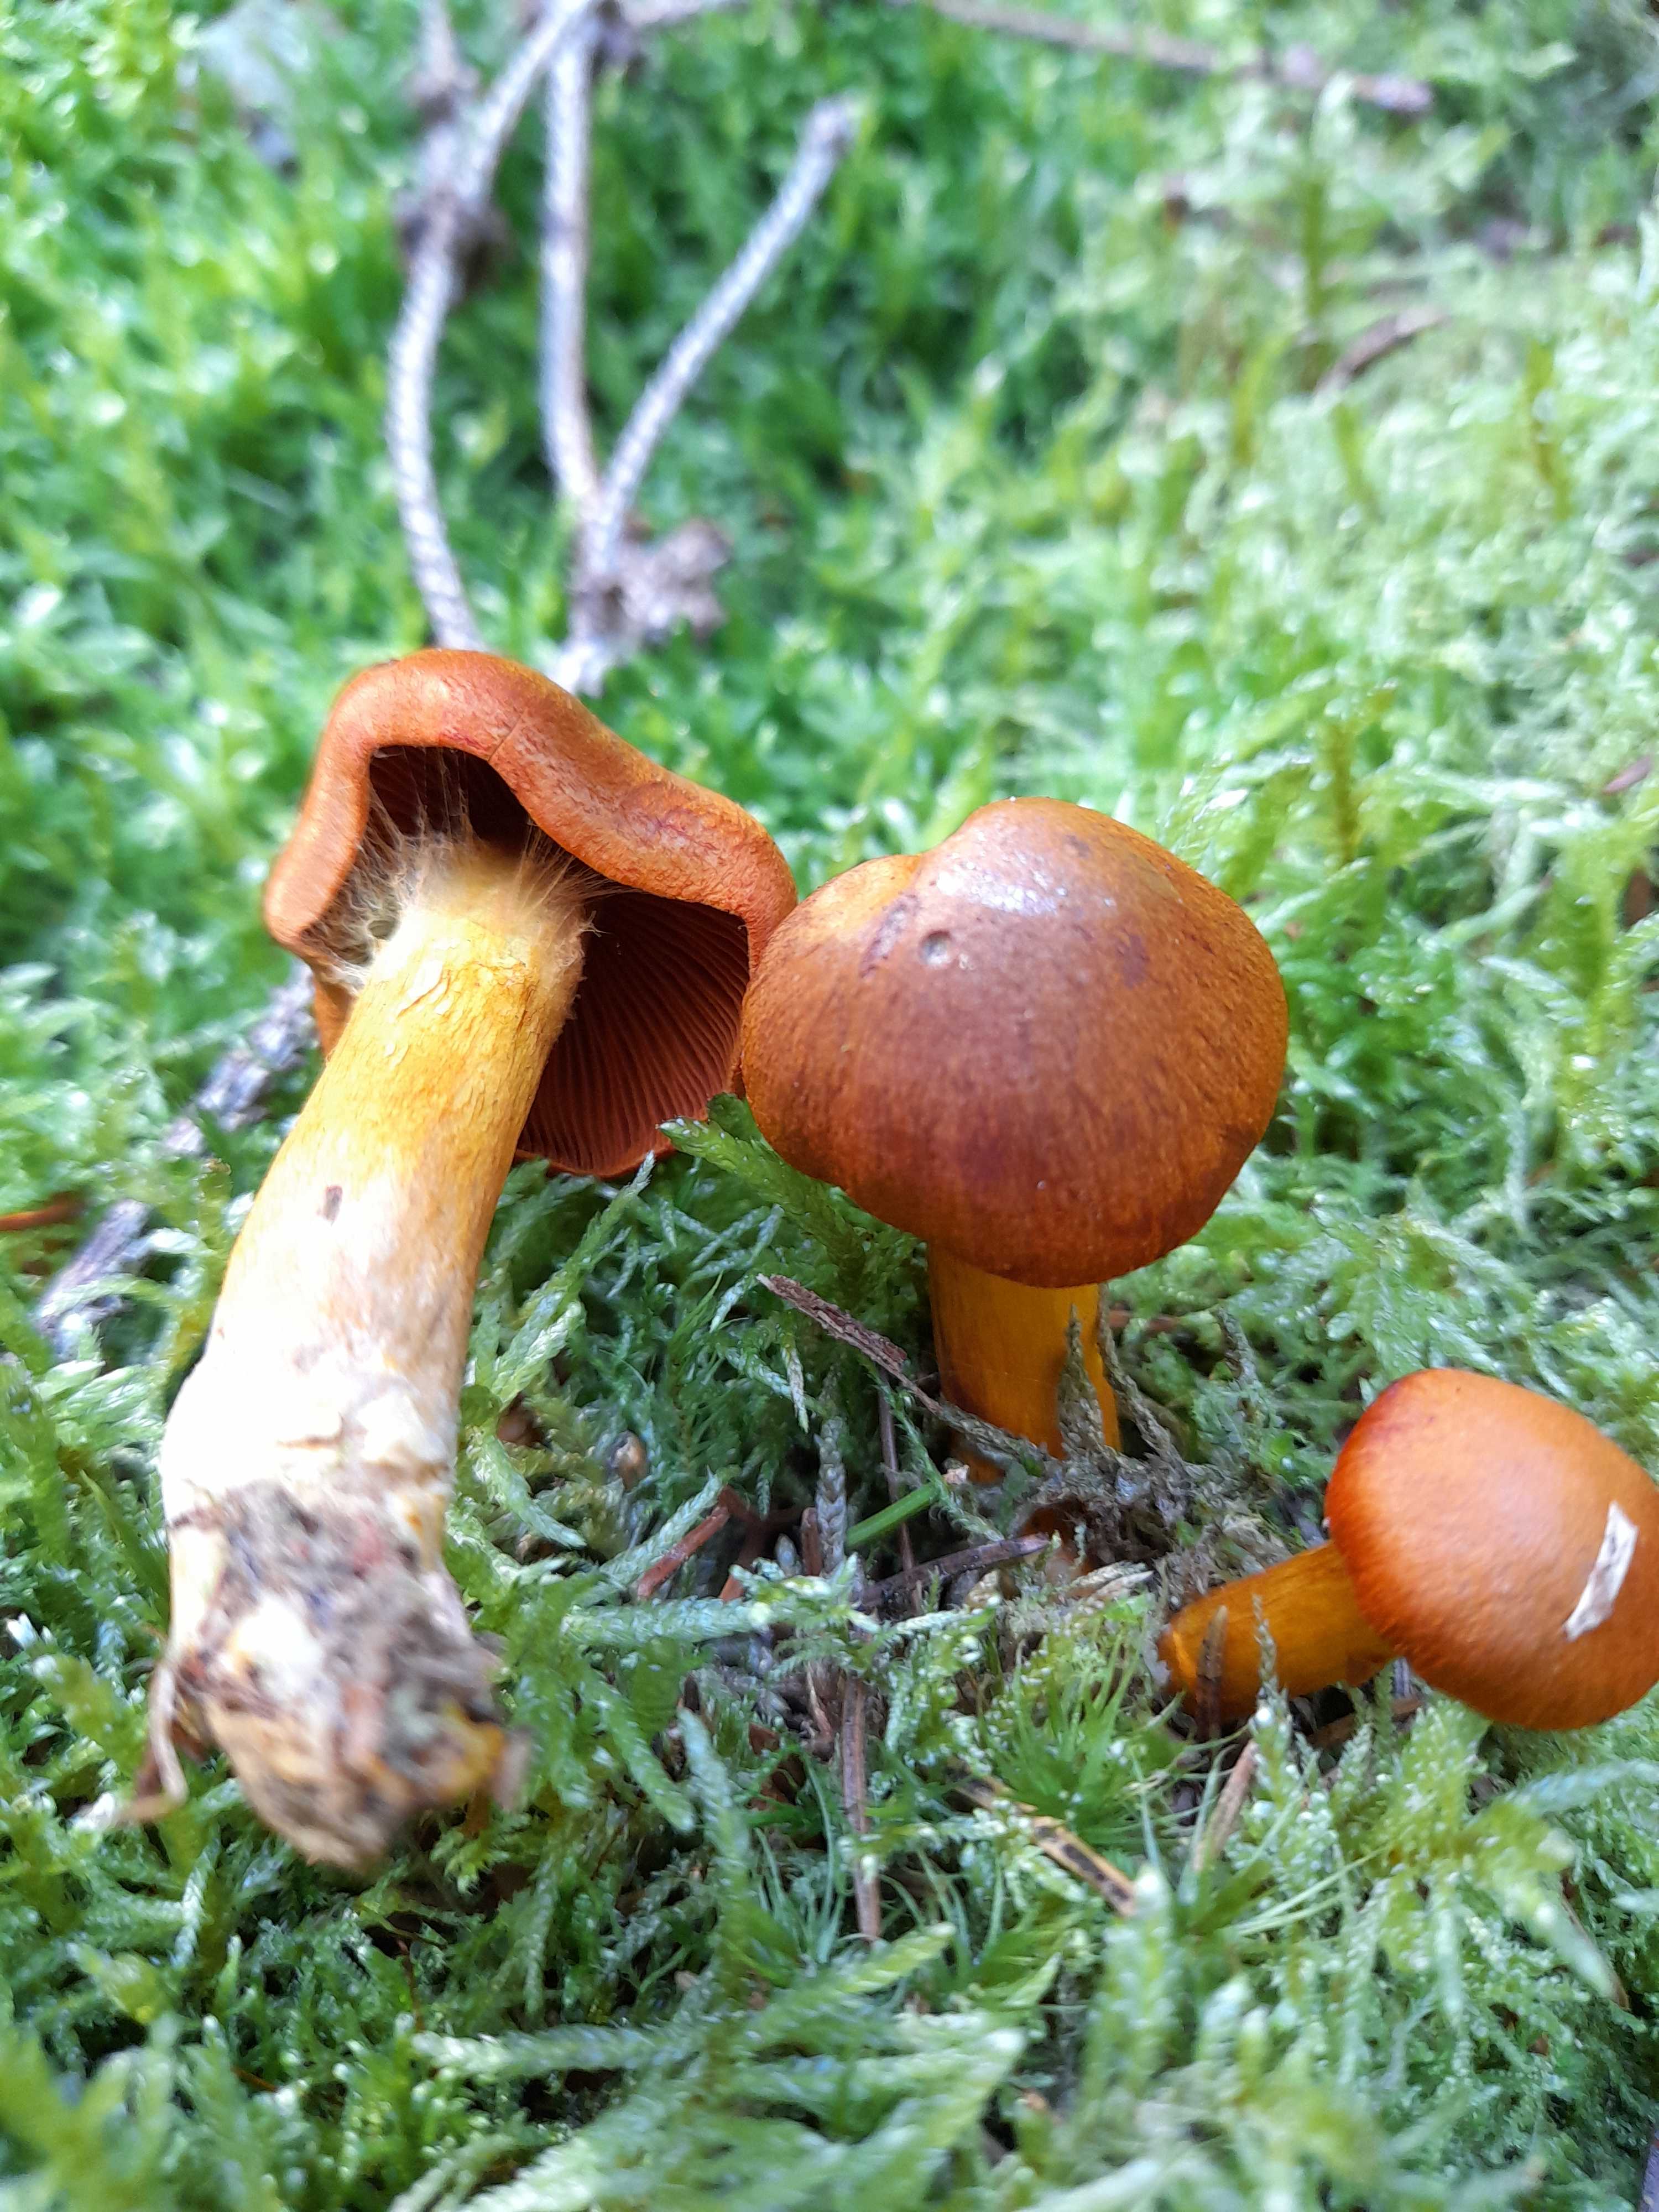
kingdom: Fungi
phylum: Basidiomycota
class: Agaricomycetes
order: Agaricales
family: Hymenogastraceae
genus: Gymnopilus
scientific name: Gymnopilus penetrans
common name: plettet flammehat
